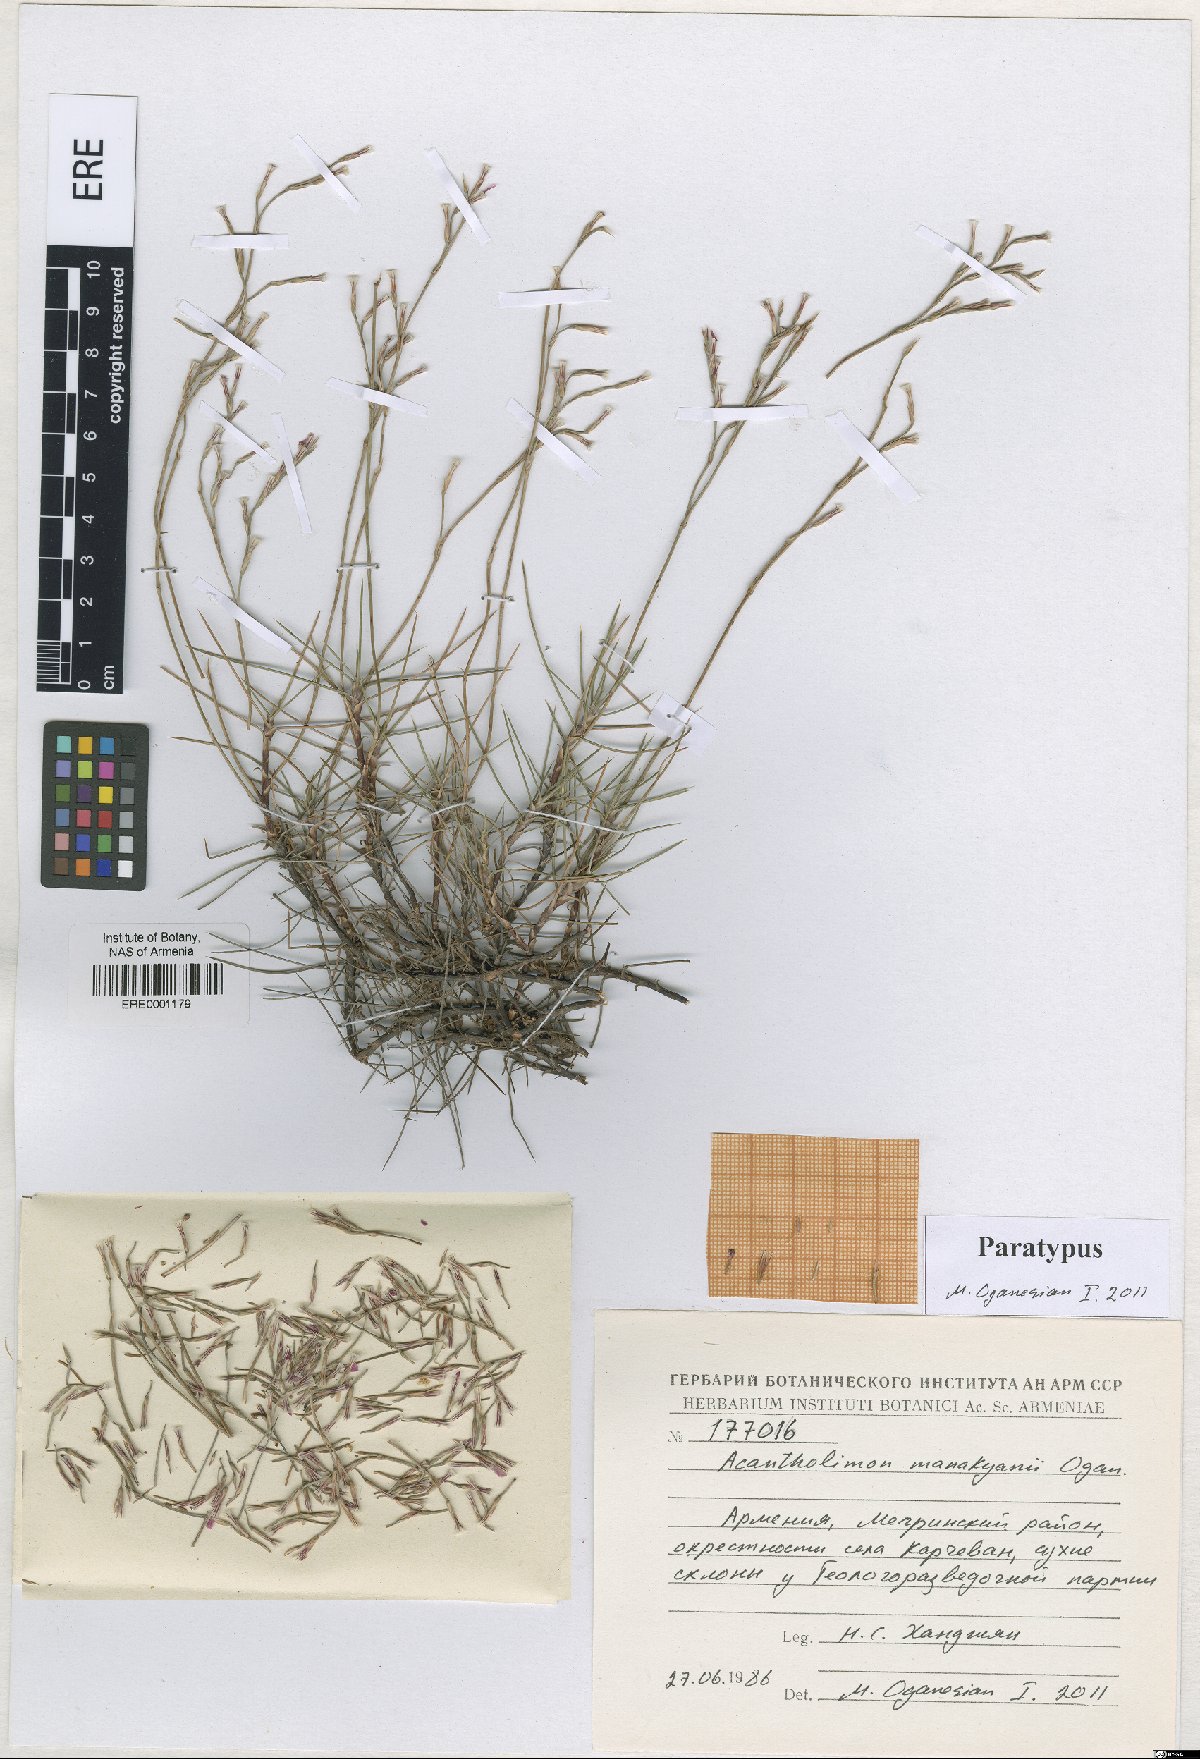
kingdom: Plantae
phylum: Tracheophyta
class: Magnoliopsida
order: Caryophyllales
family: Plumbaginaceae
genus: Acantholimon
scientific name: Acantholimon manakyanii
